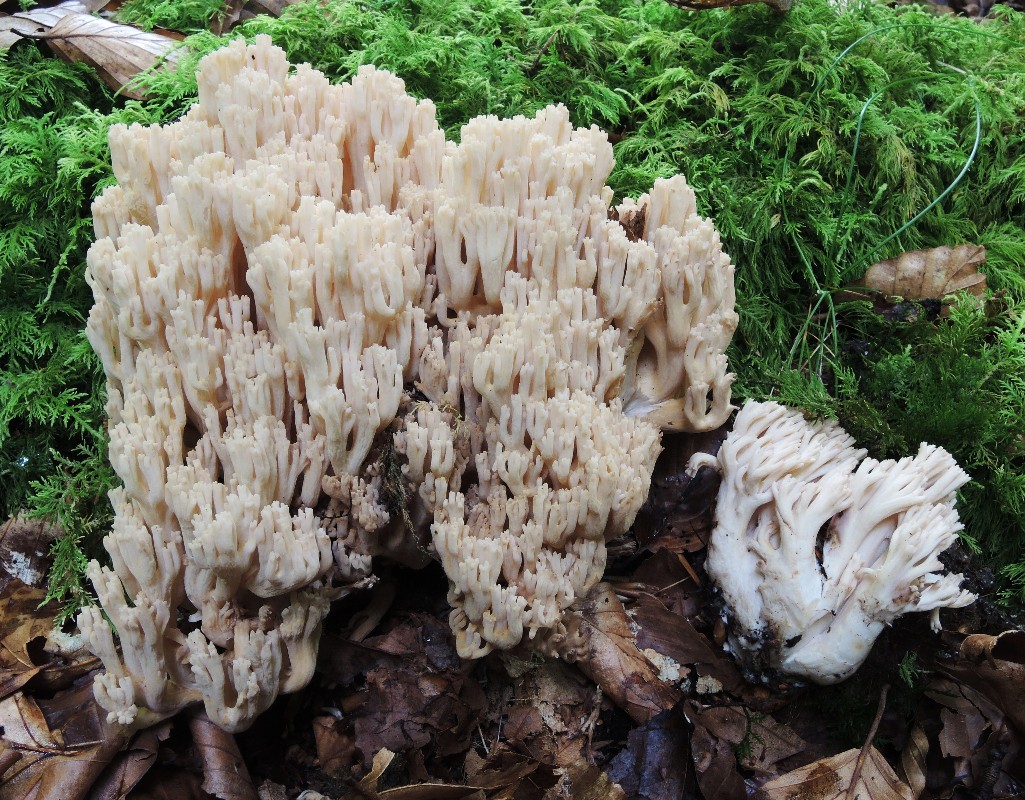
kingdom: Fungi
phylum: Basidiomycota
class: Agaricomycetes
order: Gomphales
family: Gomphaceae
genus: Ramaria
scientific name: Ramaria
